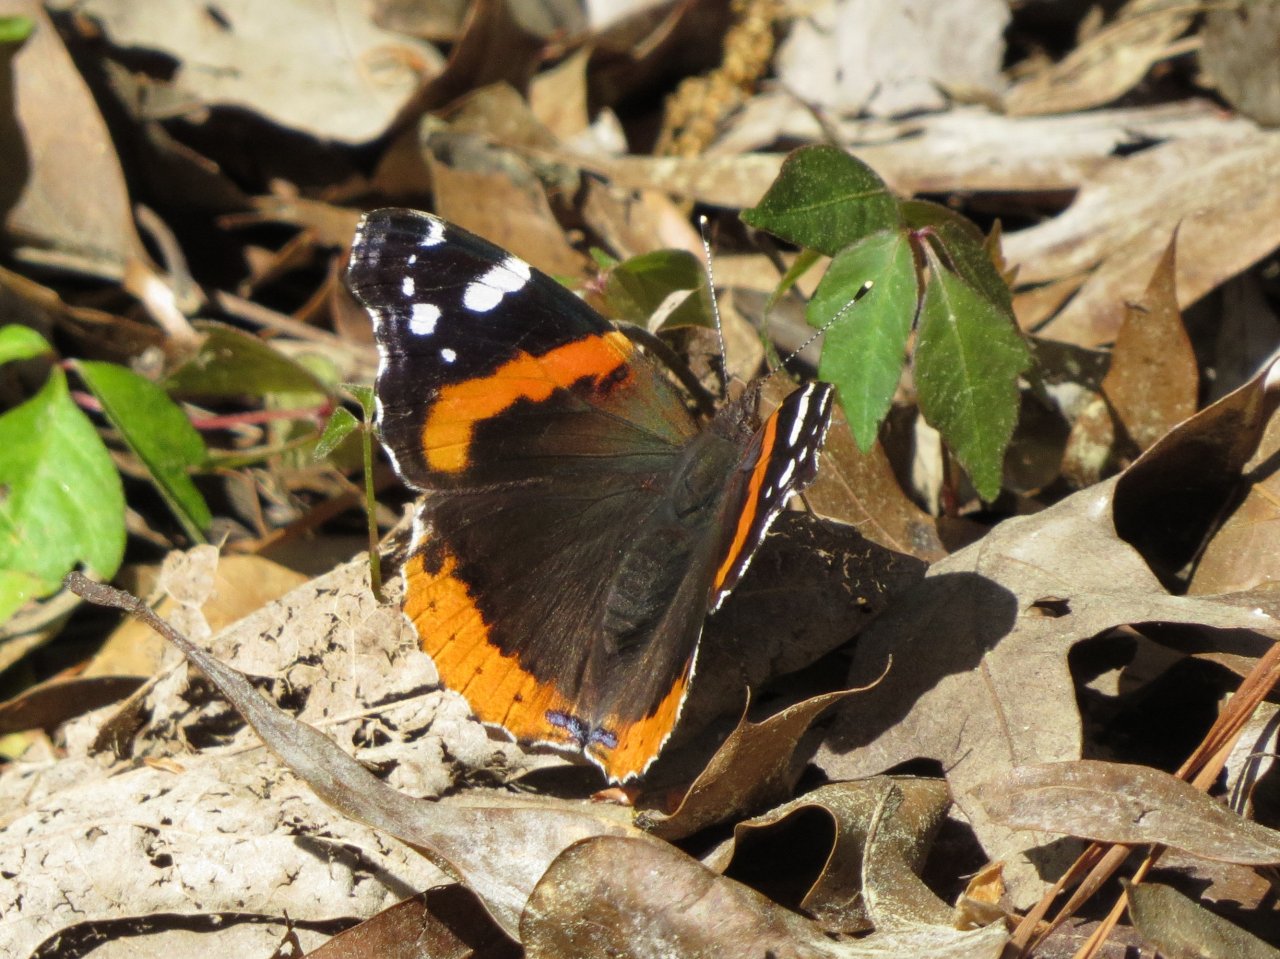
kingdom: Animalia
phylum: Arthropoda
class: Insecta
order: Lepidoptera
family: Nymphalidae
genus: Vanessa
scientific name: Vanessa atalanta
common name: Red Admiral
